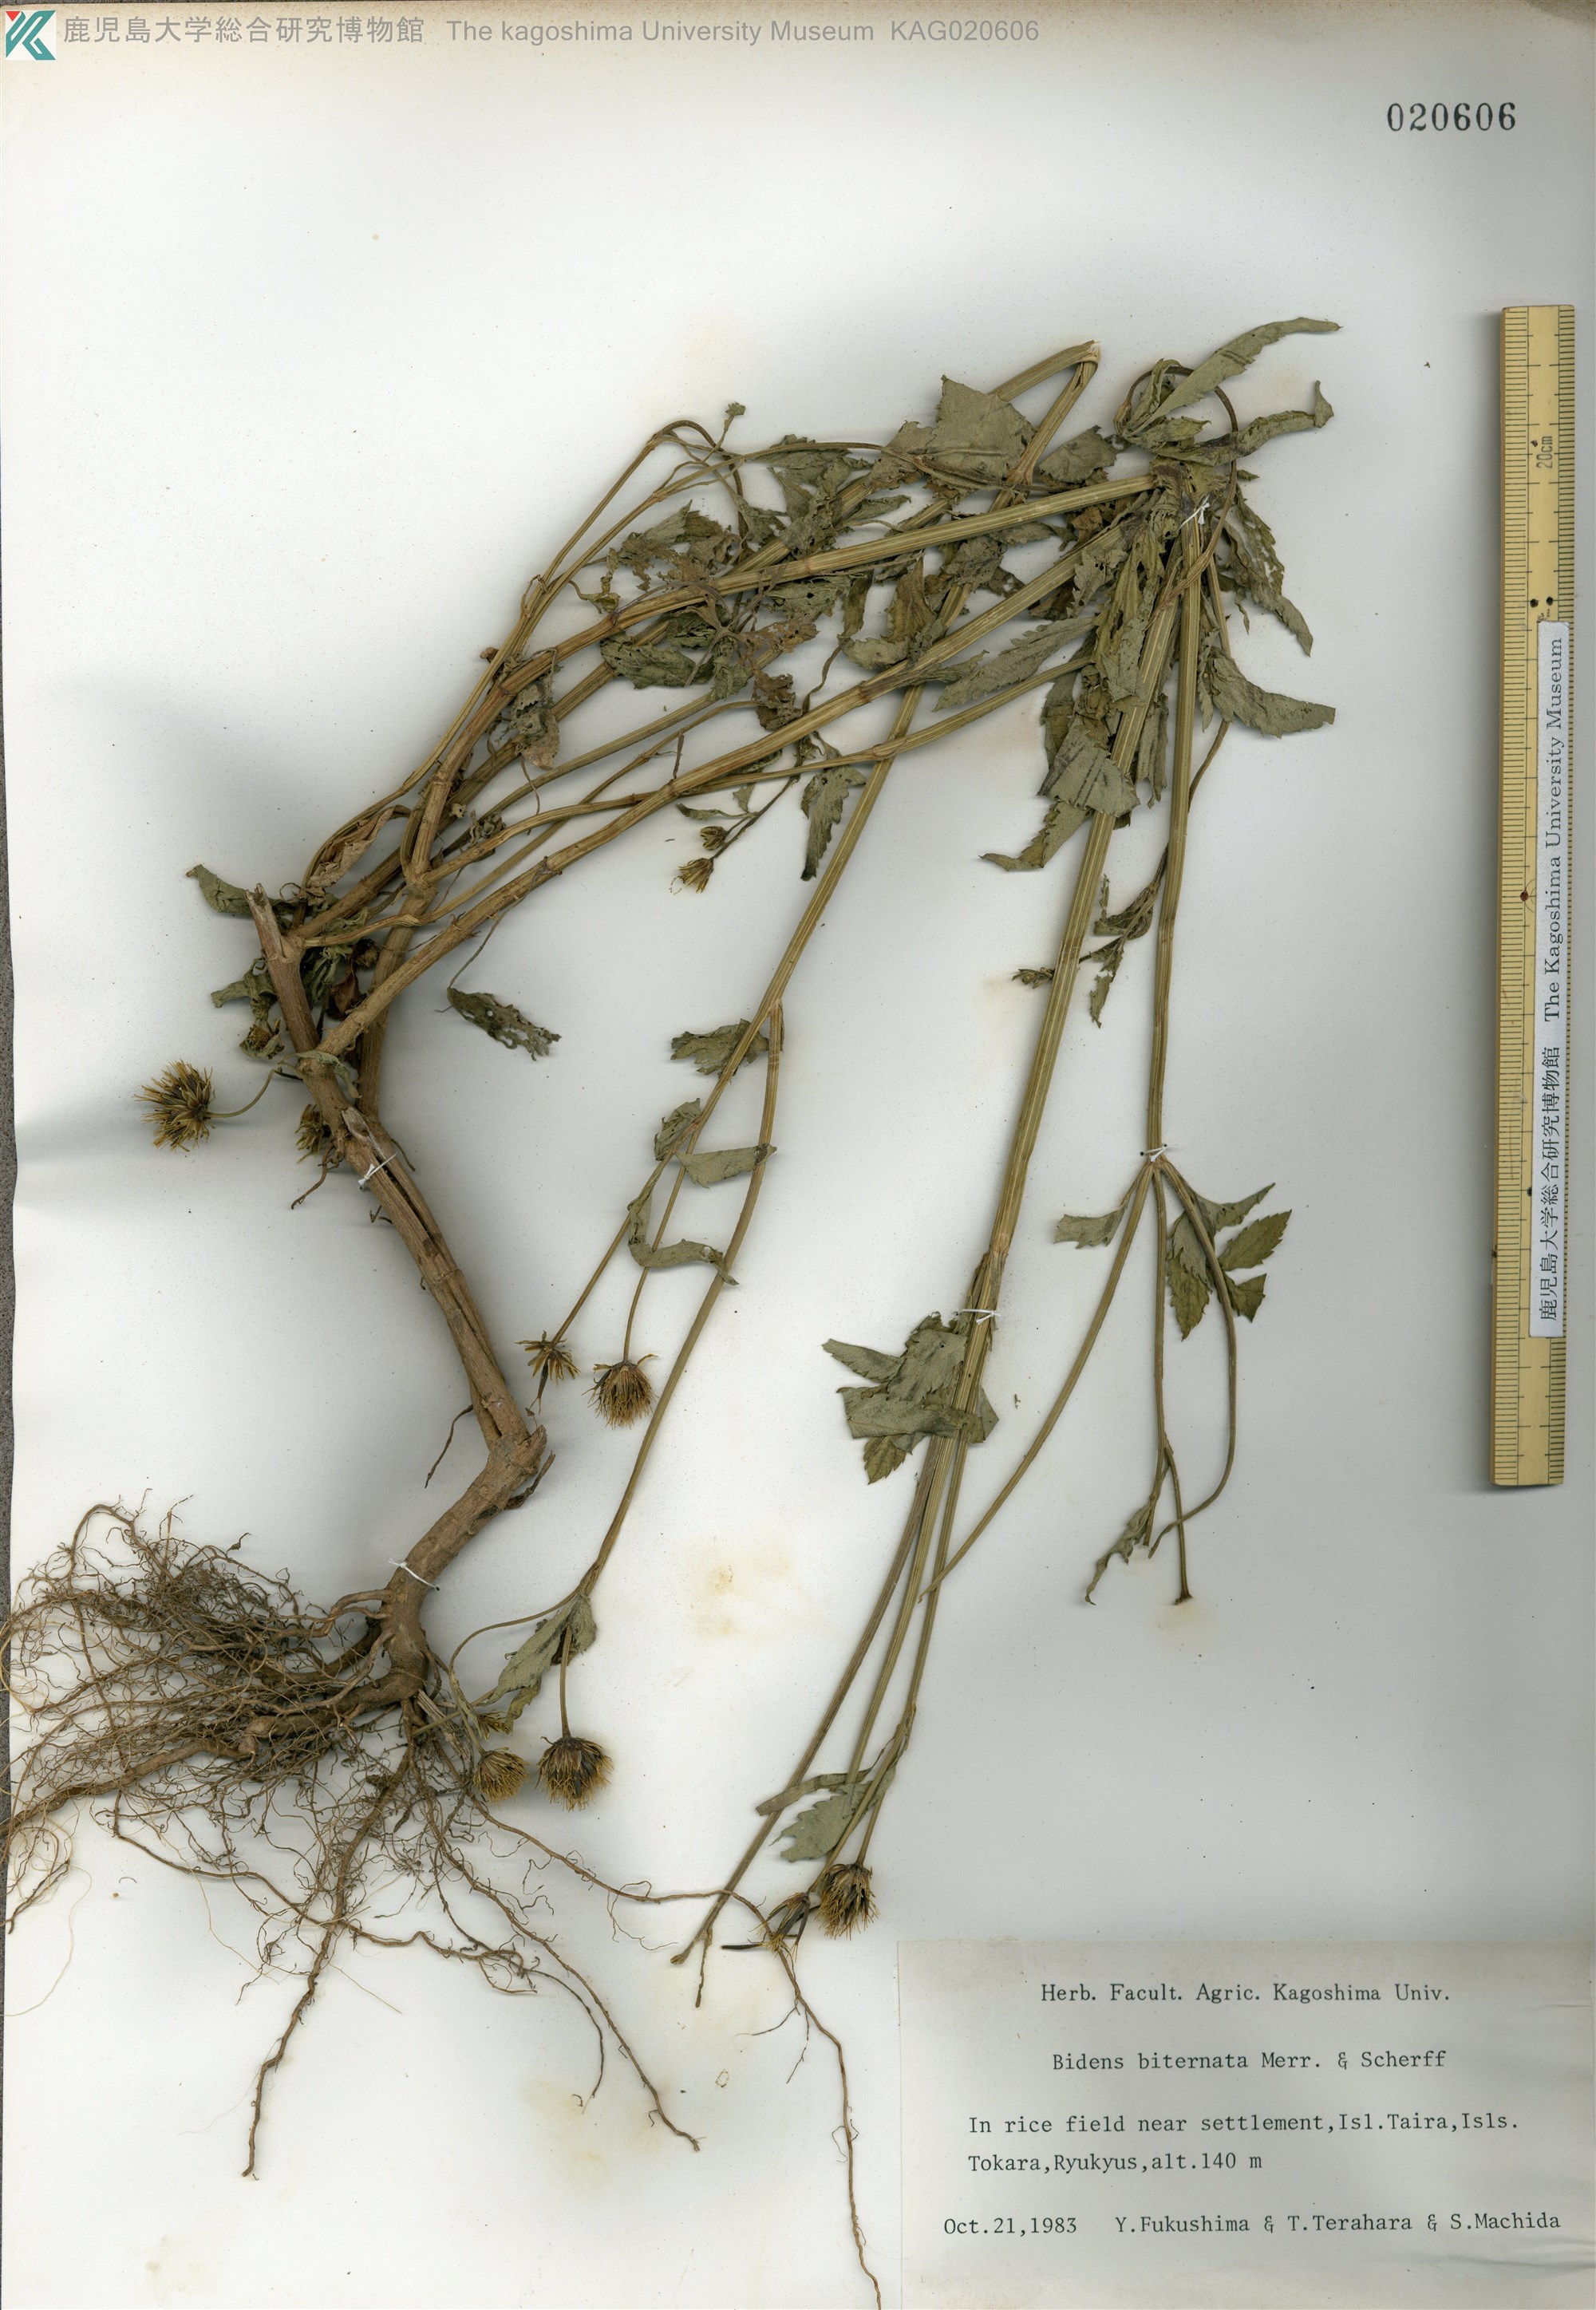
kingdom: Plantae
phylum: Tracheophyta
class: Magnoliopsida
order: Asterales
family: Asteraceae
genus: Bidens
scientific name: Bidens biternata
